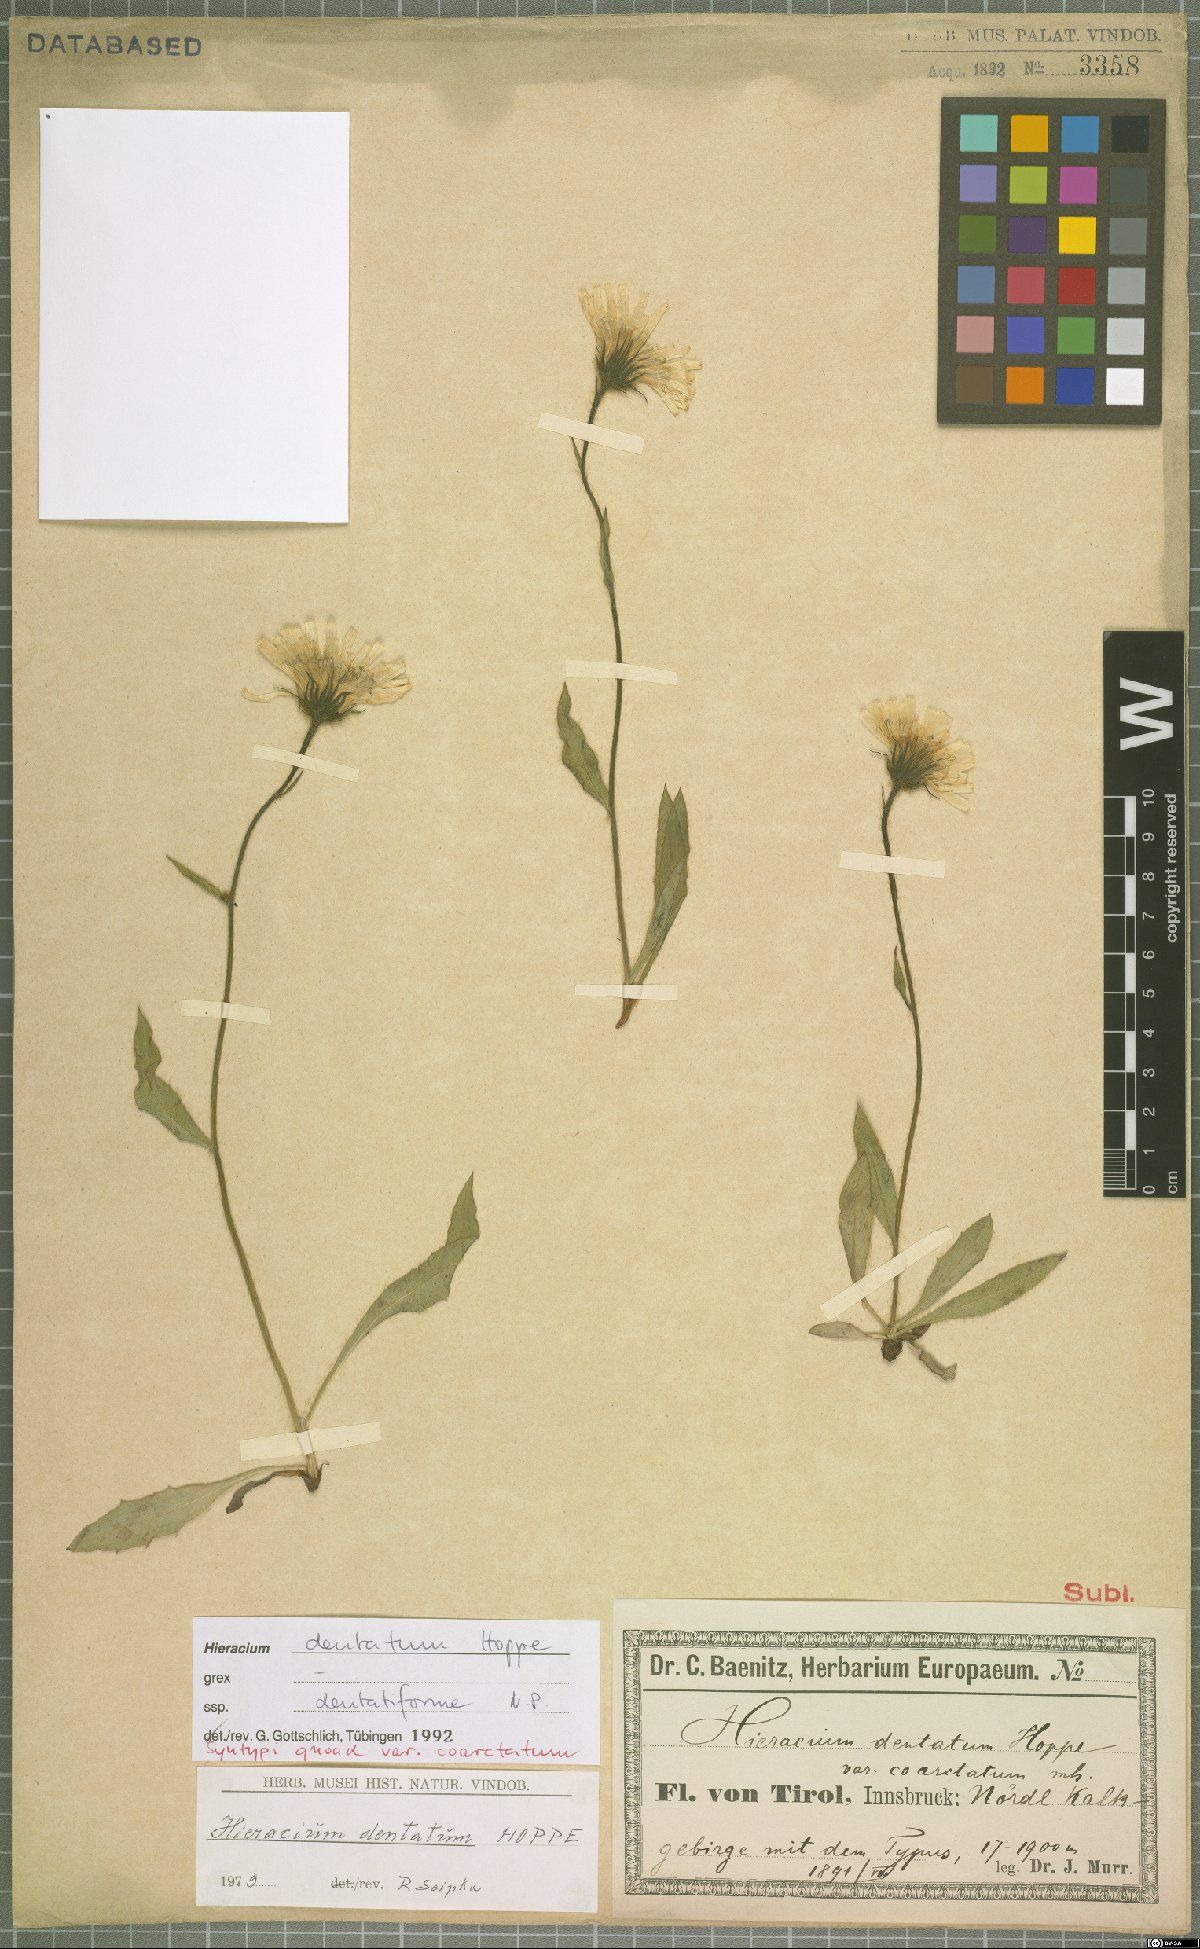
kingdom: Plantae
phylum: Tracheophyta
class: Magnoliopsida
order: Asterales
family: Asteraceae
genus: Hieracium
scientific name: Hieracium dentatum
